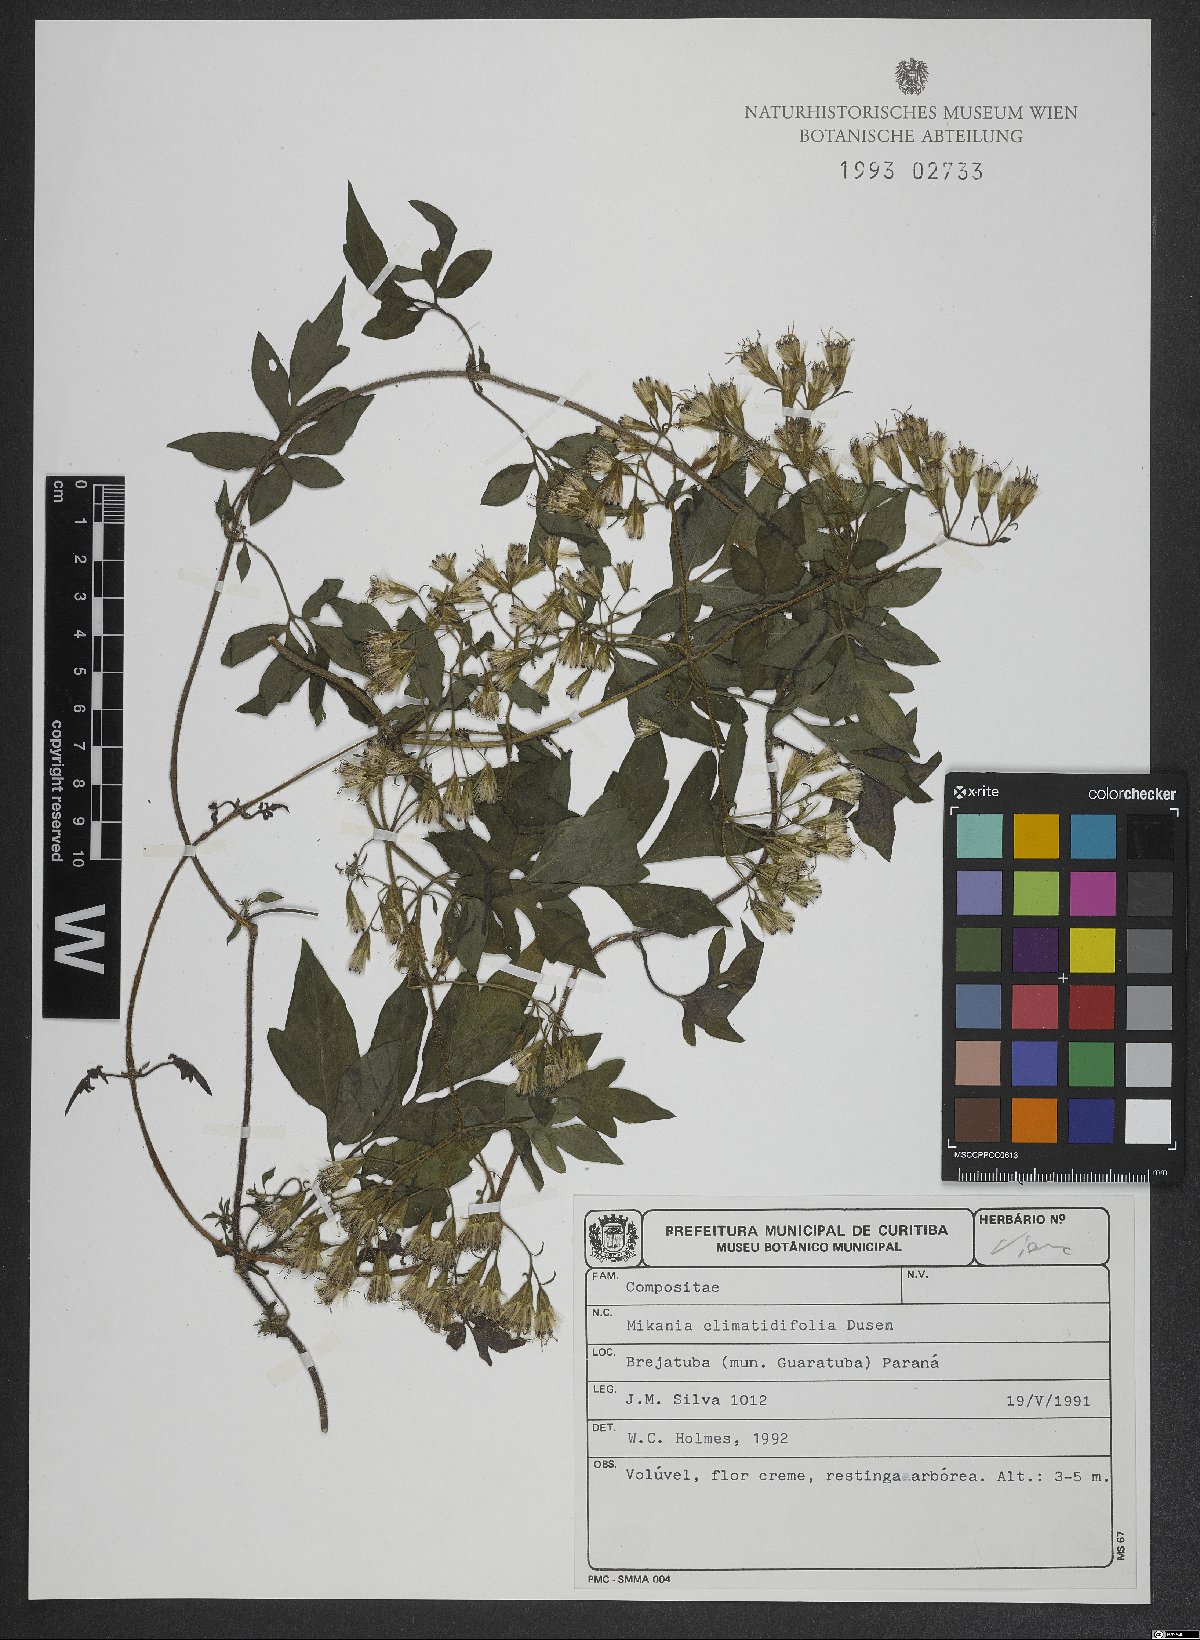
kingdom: Plantae
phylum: Tracheophyta
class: Magnoliopsida
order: Asterales
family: Asteraceae
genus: Mikania
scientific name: Mikania clematidifolia
